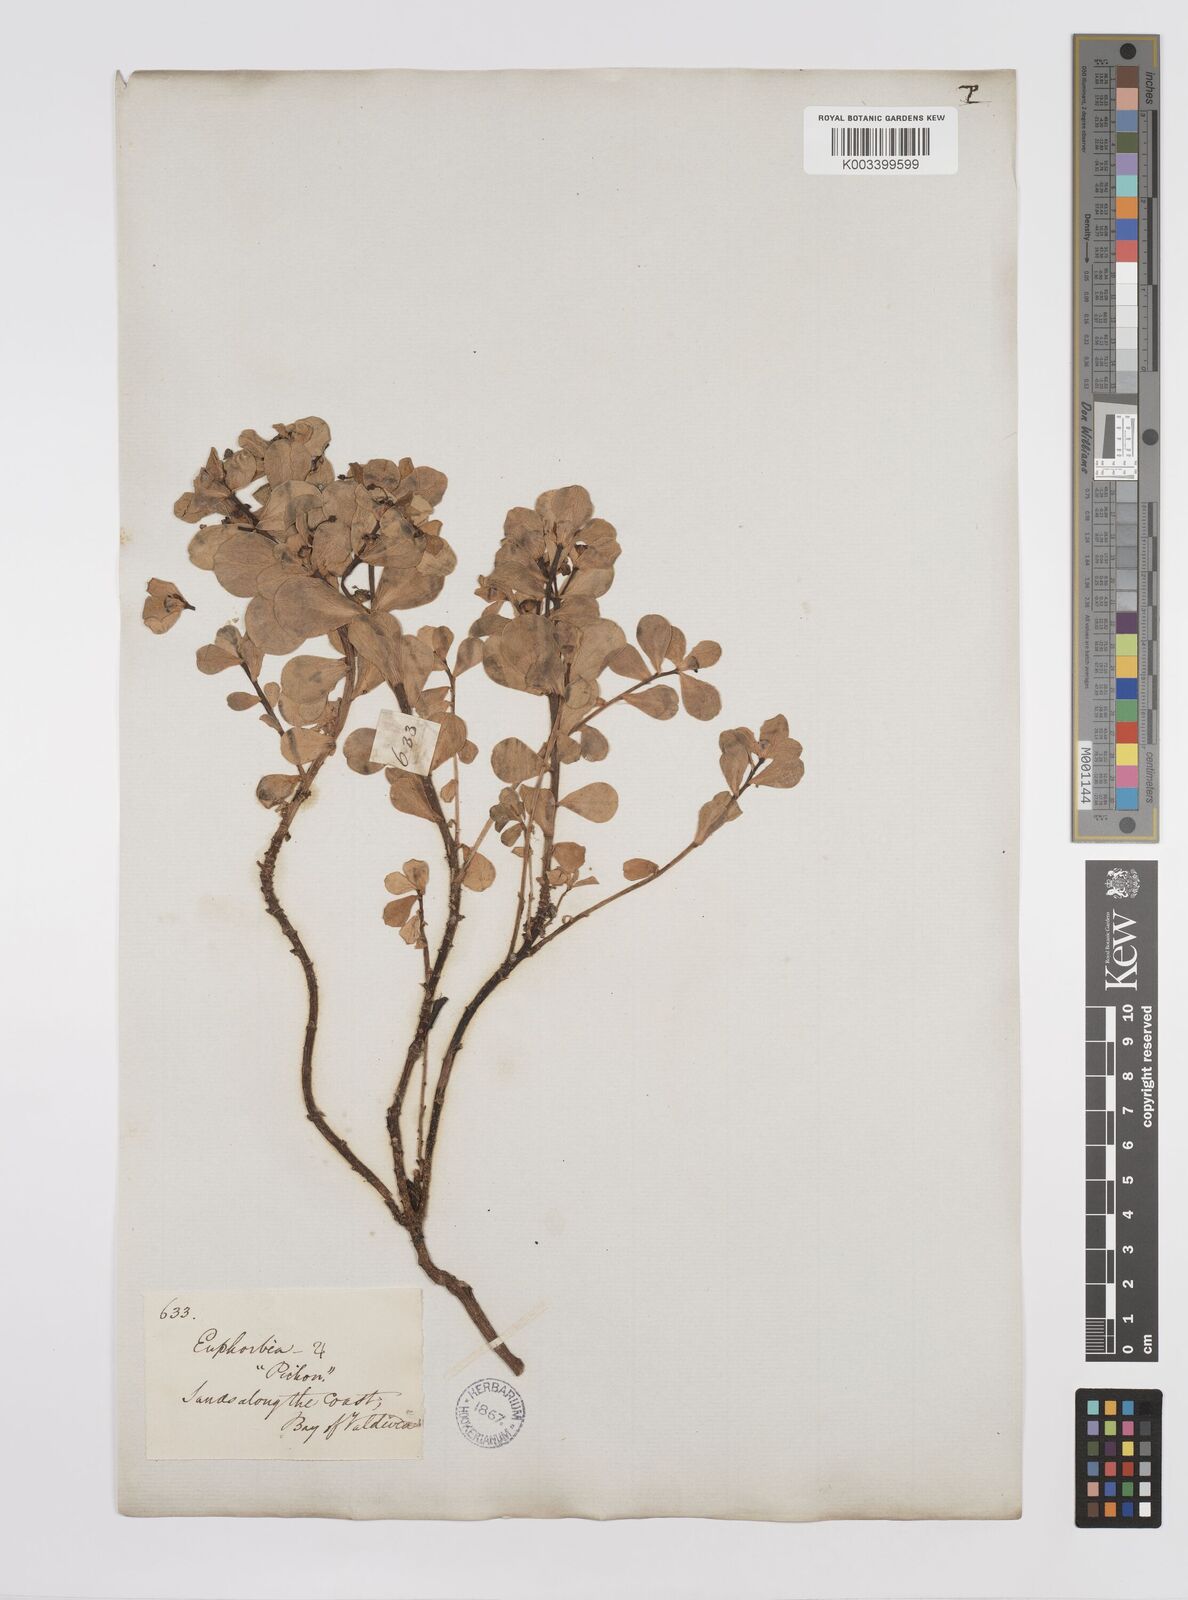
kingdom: Plantae
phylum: Tracheophyta
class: Magnoliopsida
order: Malpighiales
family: Euphorbiaceae
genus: Euphorbia
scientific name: Euphorbia portulacoides
